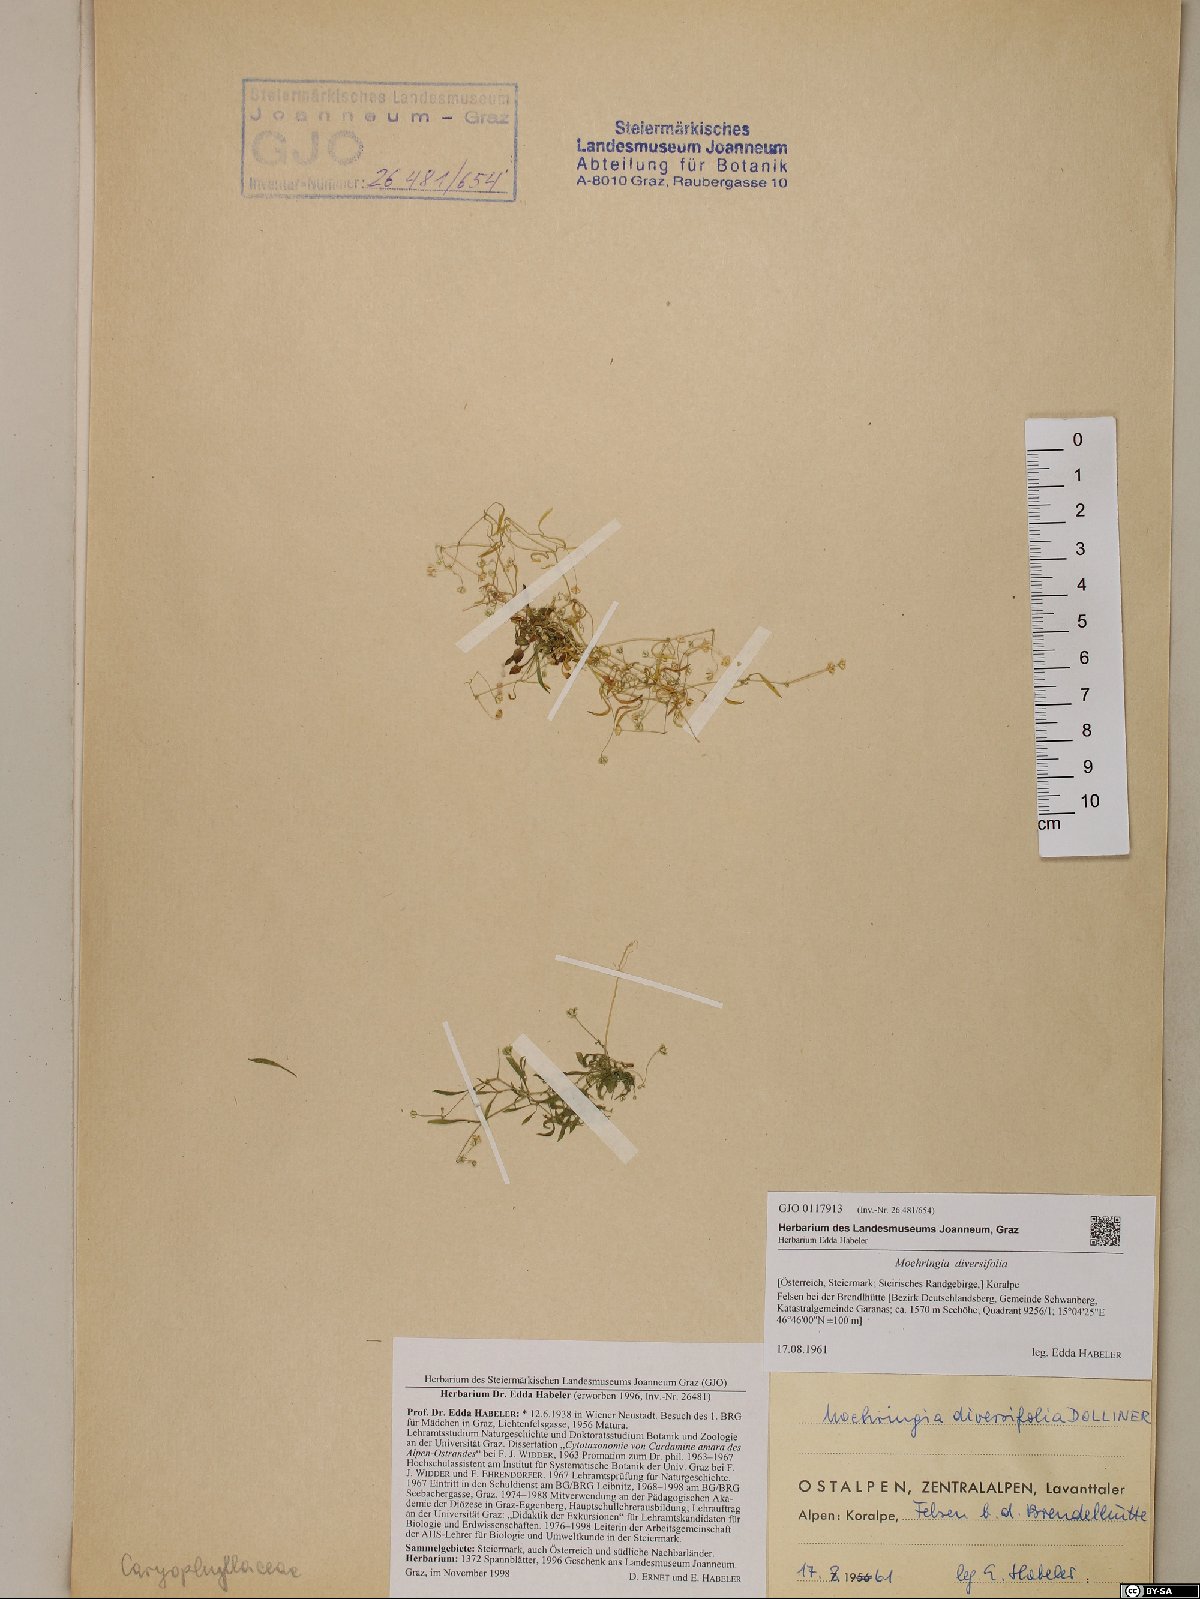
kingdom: Plantae
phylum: Tracheophyta
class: Magnoliopsida
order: Caryophyllales
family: Caryophyllaceae
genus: Moehringia
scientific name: Moehringia diversifolia
